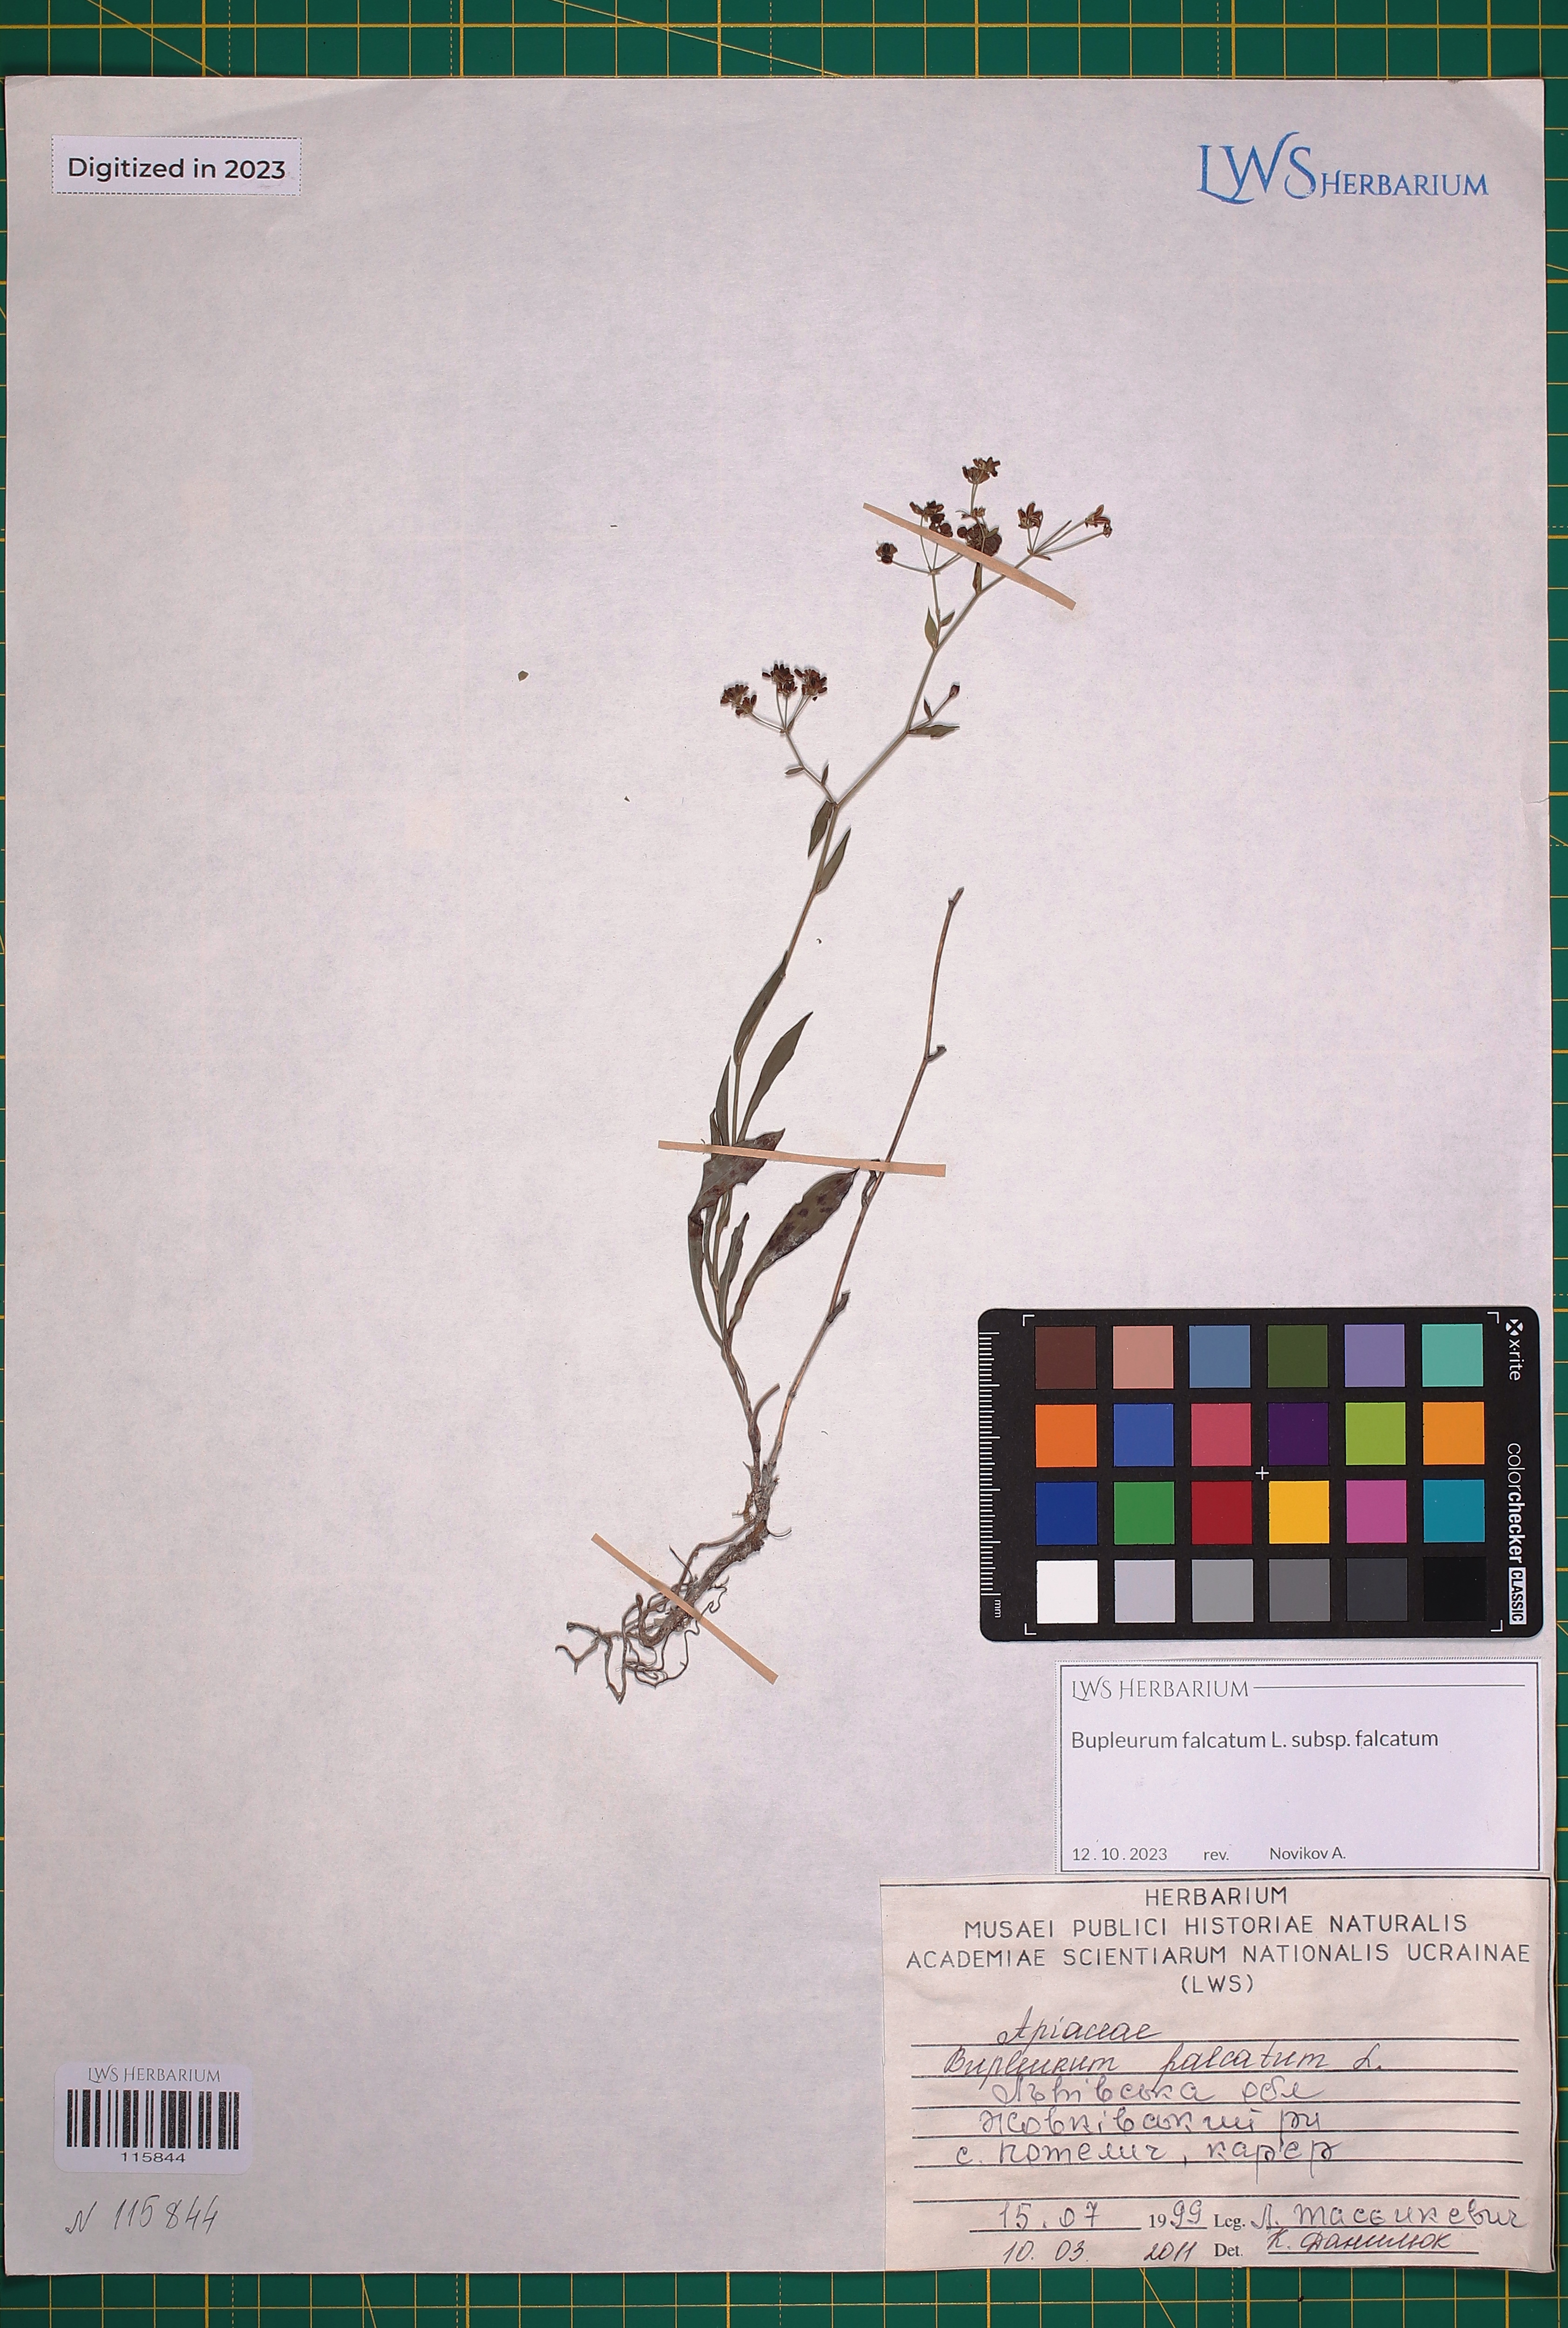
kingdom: Plantae
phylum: Tracheophyta
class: Magnoliopsida
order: Apiales
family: Apiaceae
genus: Bupleurum
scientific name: Bupleurum falcatum
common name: Sickle-leaved hare's-ear
